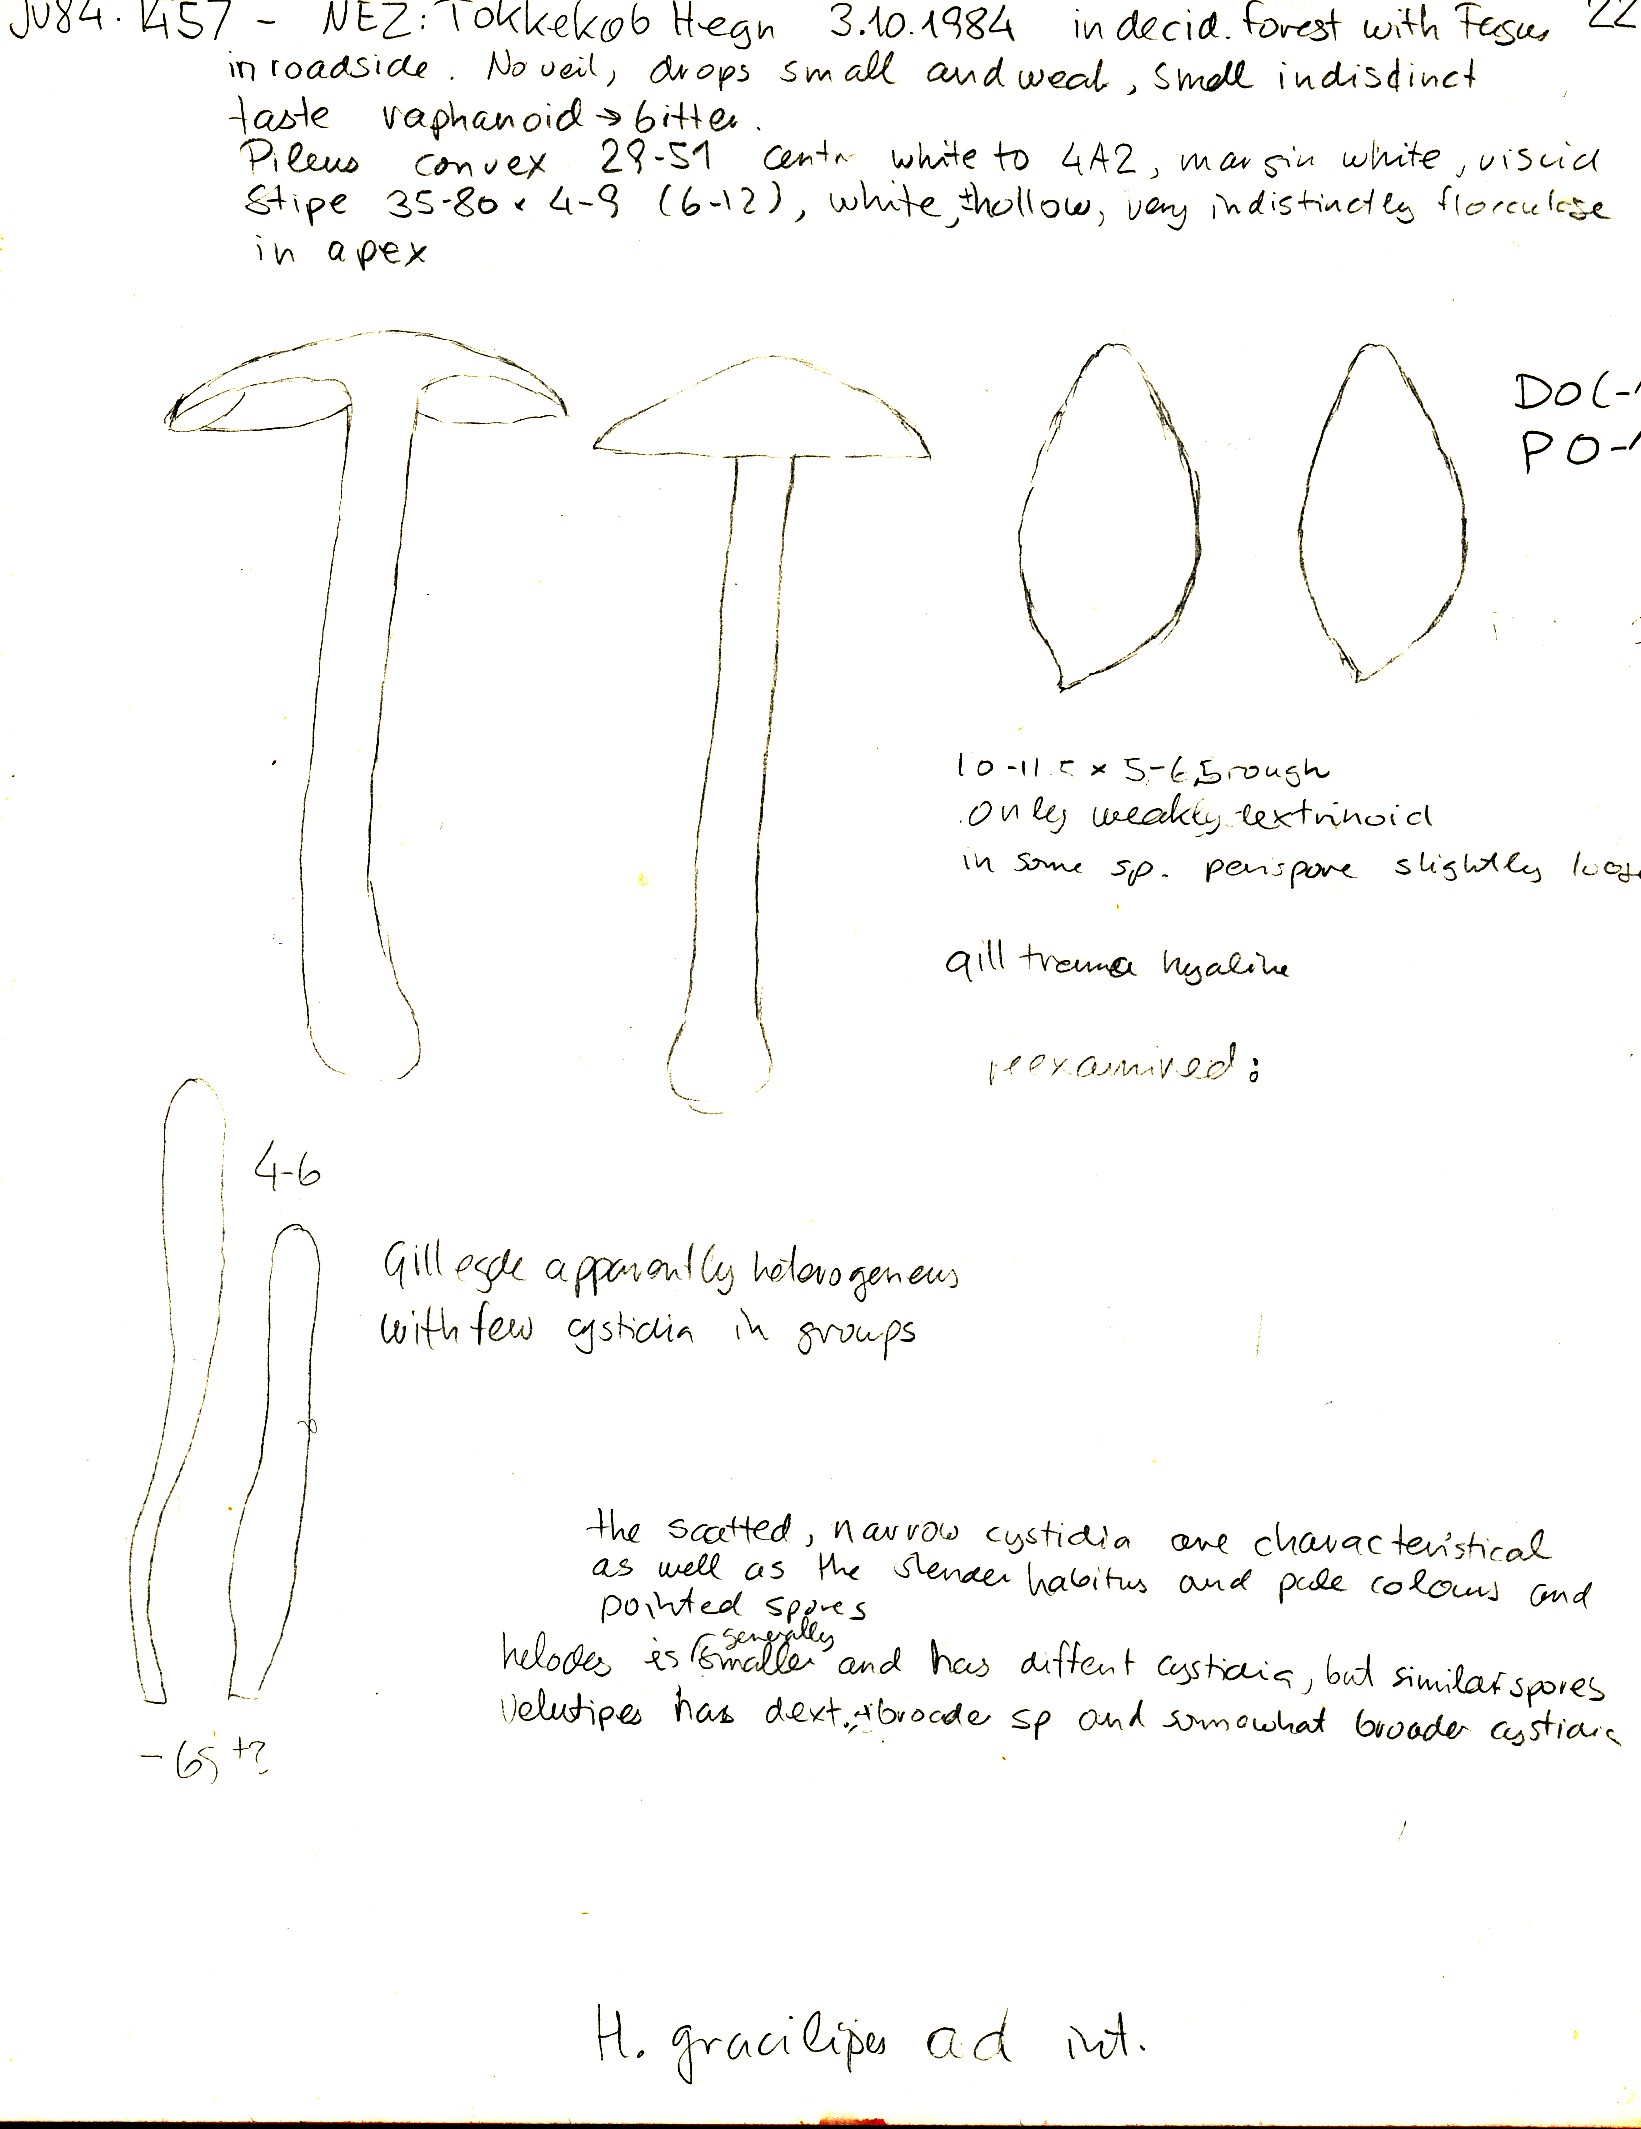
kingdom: Fungi
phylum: Basidiomycota
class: Agaricomycetes
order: Agaricales
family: Hymenogastraceae
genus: Hebeloma
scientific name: Hebeloma pseudofragilipes
